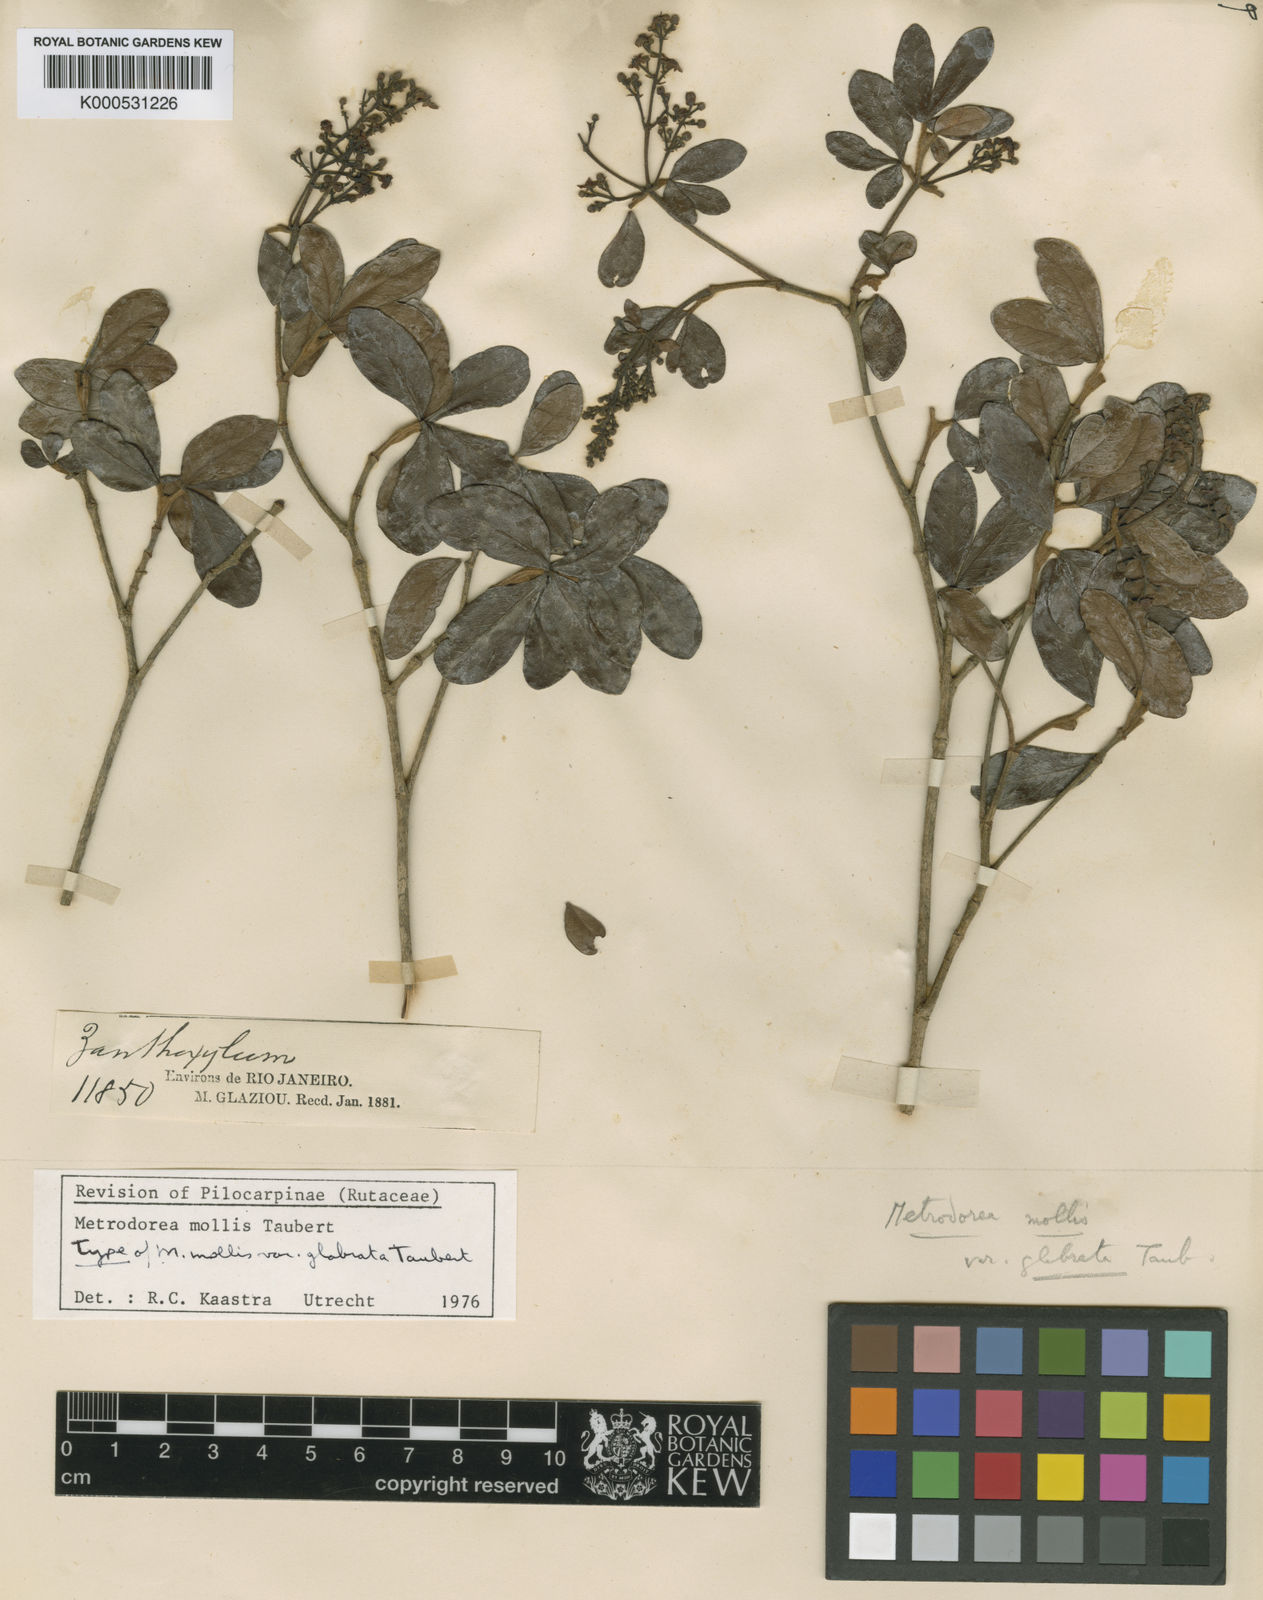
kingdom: Plantae
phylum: Tracheophyta
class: Magnoliopsida
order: Sapindales
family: Rutaceae
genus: Metrodorea
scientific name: Metrodorea mollis
